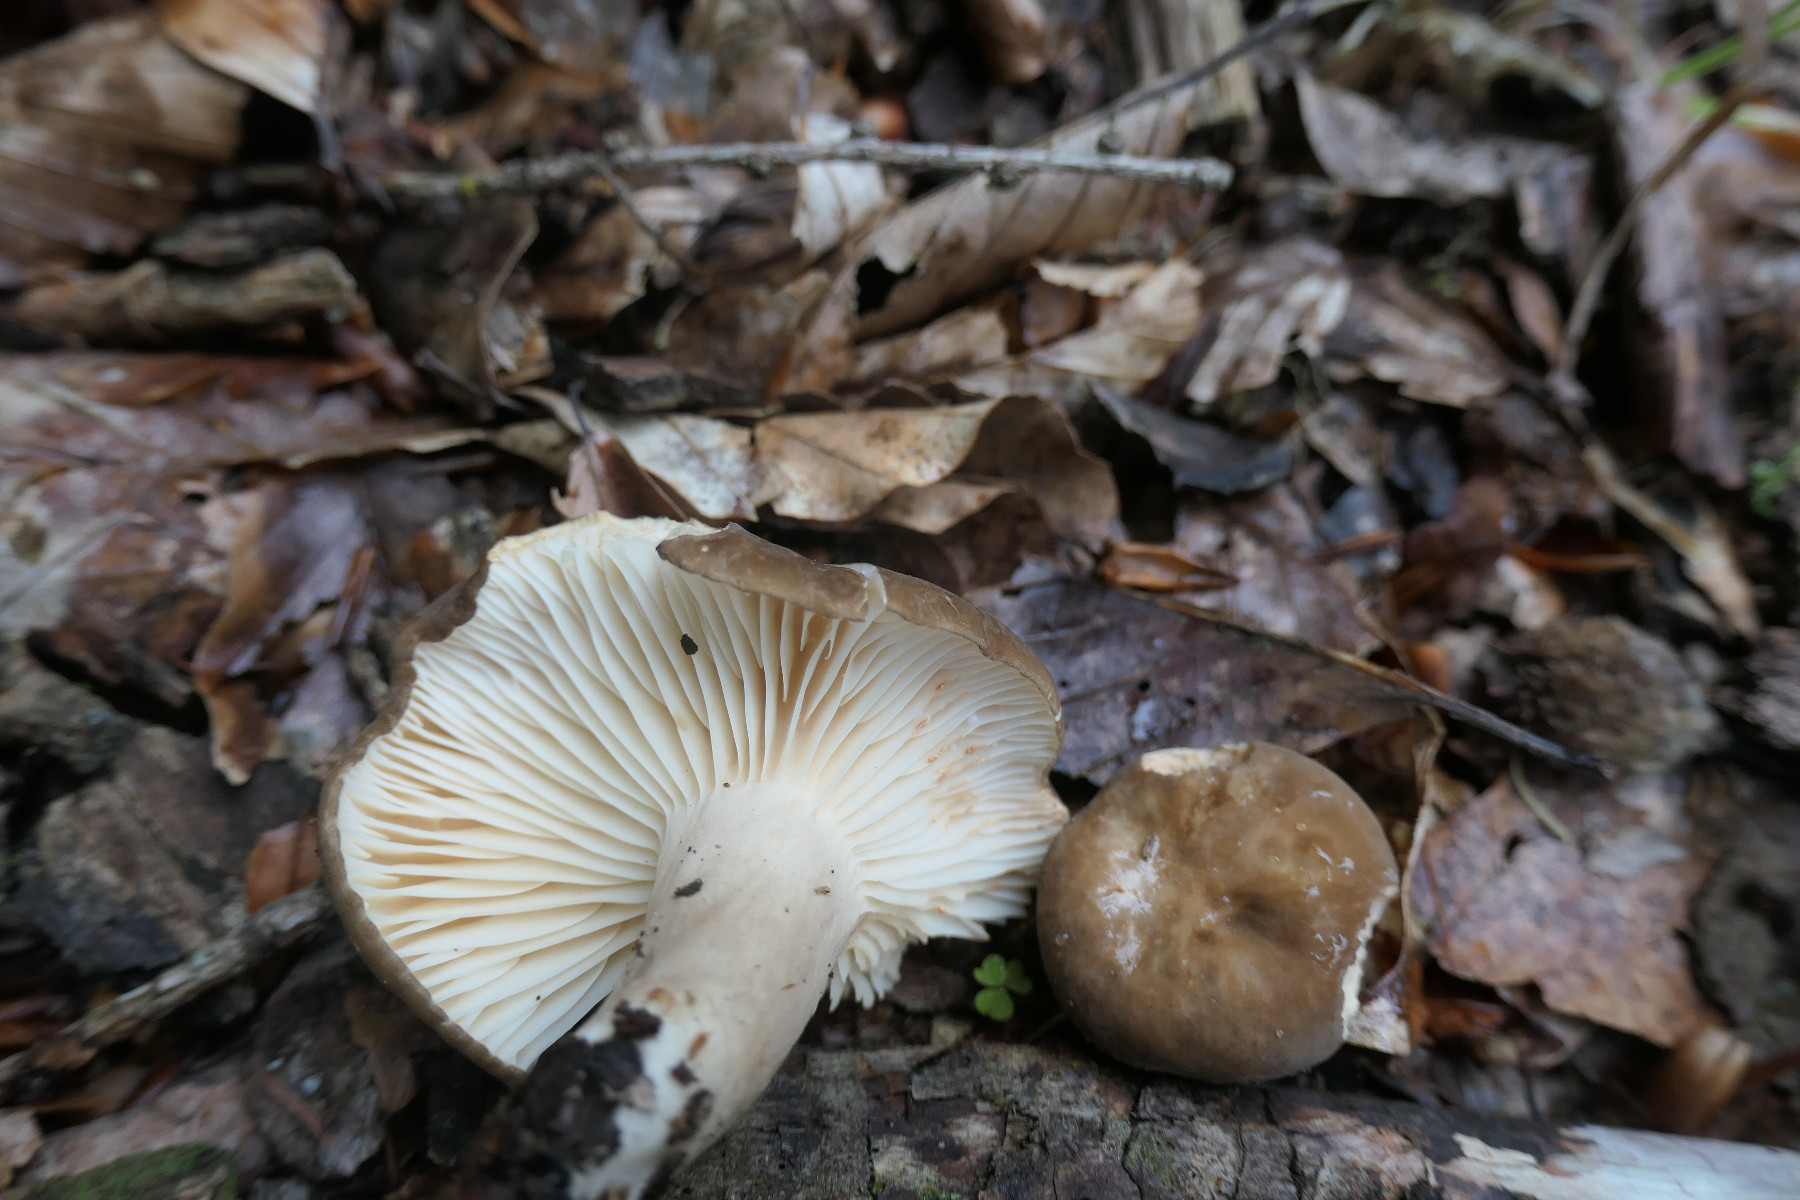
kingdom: Fungi
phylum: Basidiomycota
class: Agaricomycetes
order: Russulales
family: Russulaceae
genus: Lactarius
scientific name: Lactarius romagnesii
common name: fjernbladet mælkehat
